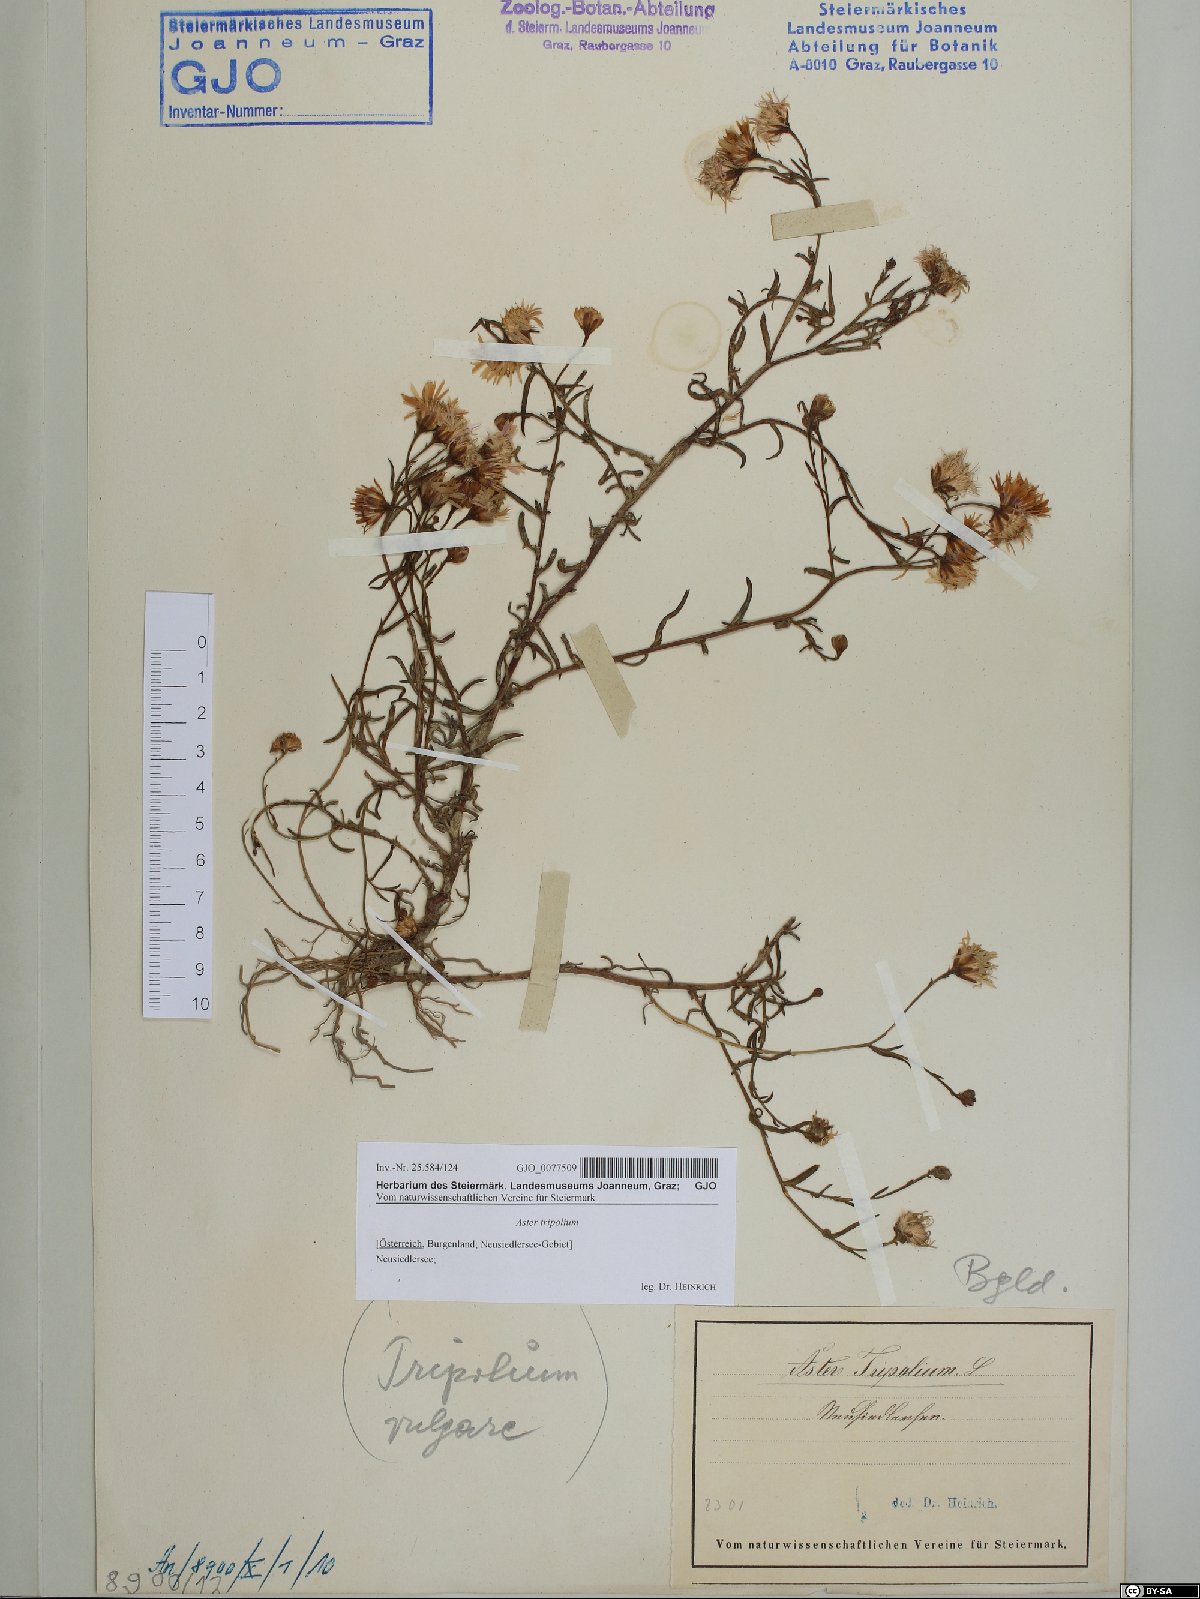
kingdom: Plantae
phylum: Tracheophyta
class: Magnoliopsida
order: Asterales
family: Asteraceae
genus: Tripolium
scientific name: Tripolium pannonicum
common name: Sea aster
